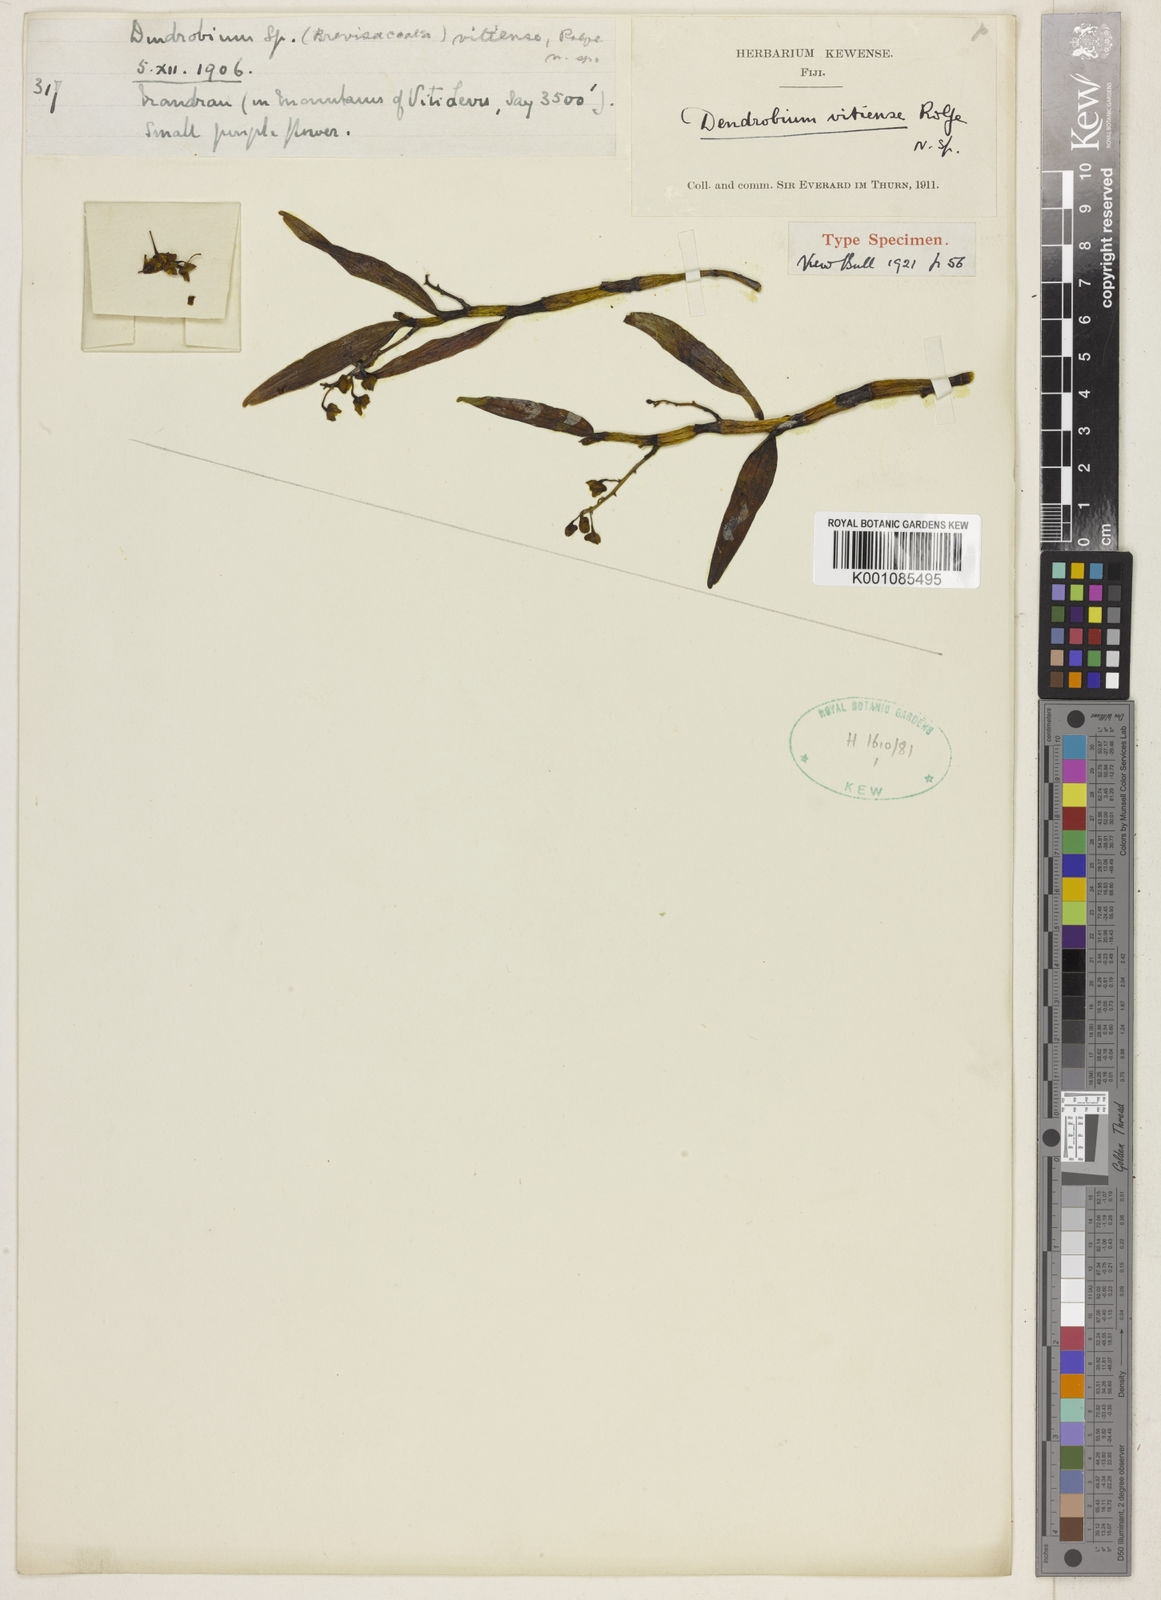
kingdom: Plantae
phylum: Tracheophyta
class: Liliopsida
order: Asparagales
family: Orchidaceae
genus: Dendrobium
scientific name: Dendrobium vitiense
